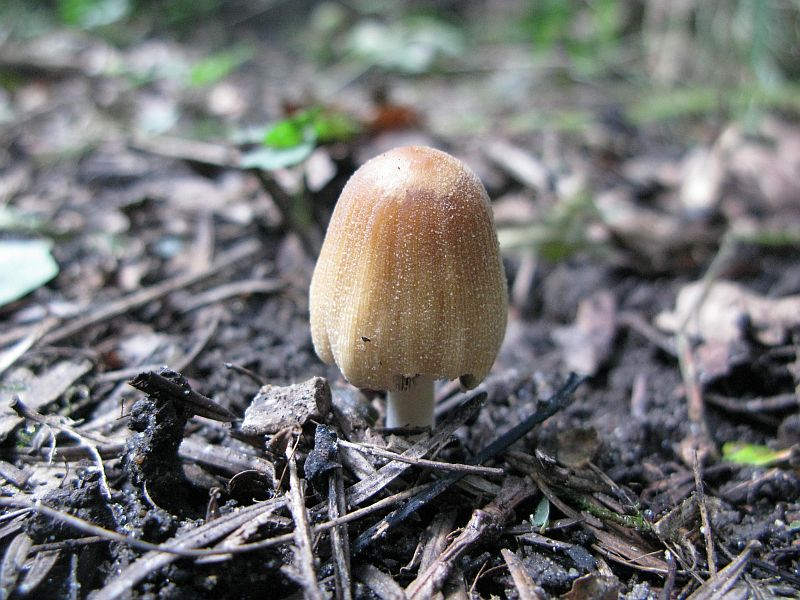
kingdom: Fungi
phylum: Basidiomycota
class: Agaricomycetes
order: Agaricales
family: Psathyrellaceae
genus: Coprinellus
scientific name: Coprinellus micaceus
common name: glimmer-blækhat
